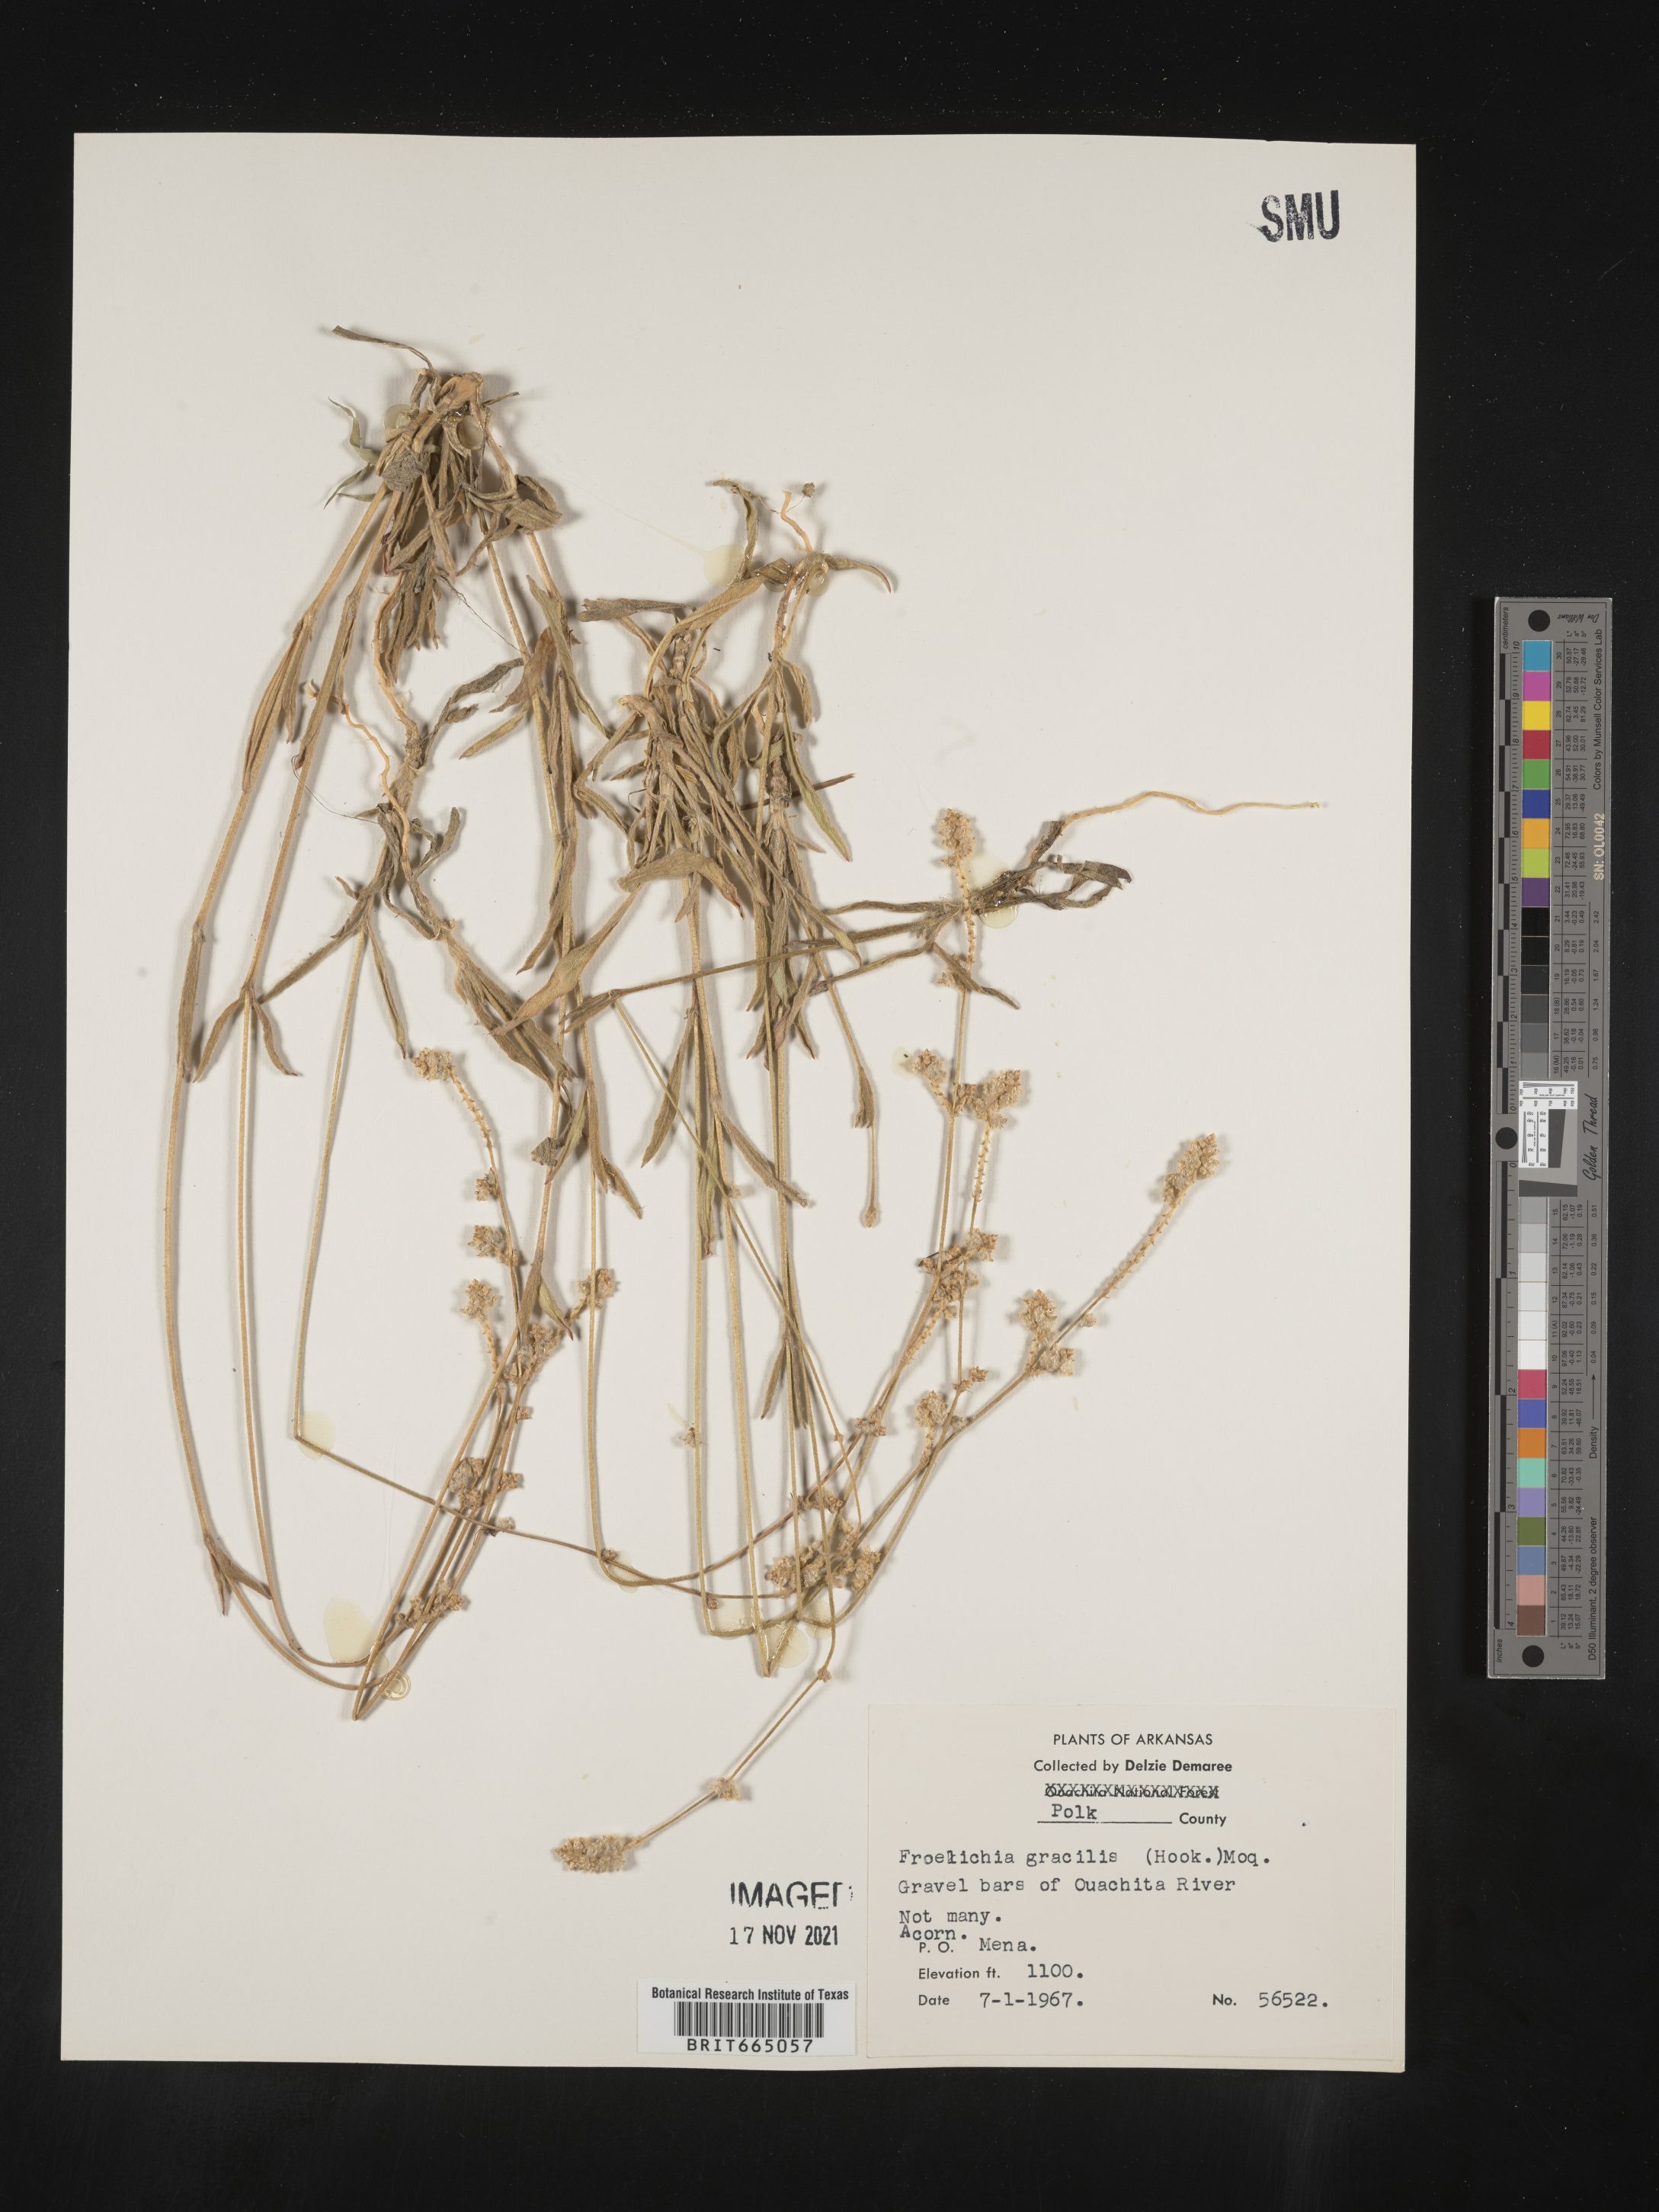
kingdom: Plantae
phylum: Tracheophyta
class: Magnoliopsida
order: Caryophyllales
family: Amaranthaceae
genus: Froelichia
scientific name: Froelichia gracilis
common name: Slender cottonweed
